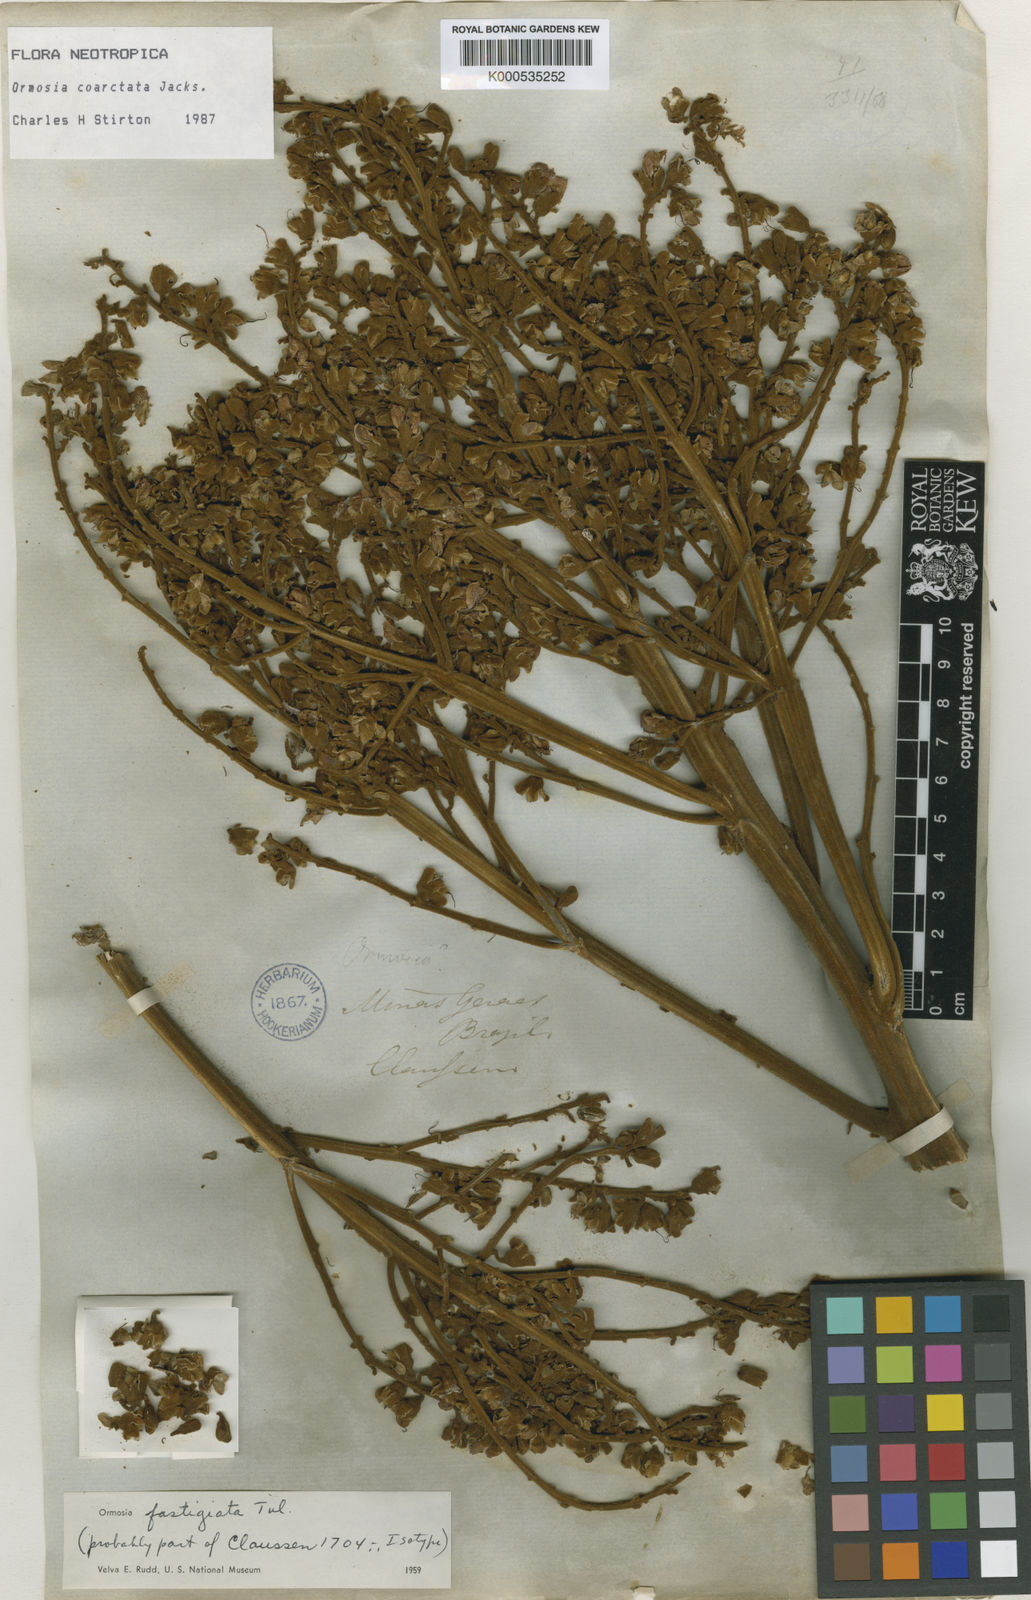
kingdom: Plantae
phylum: Tracheophyta
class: Magnoliopsida
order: Fabales
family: Fabaceae
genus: Ormosia
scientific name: Ormosia coarctata
